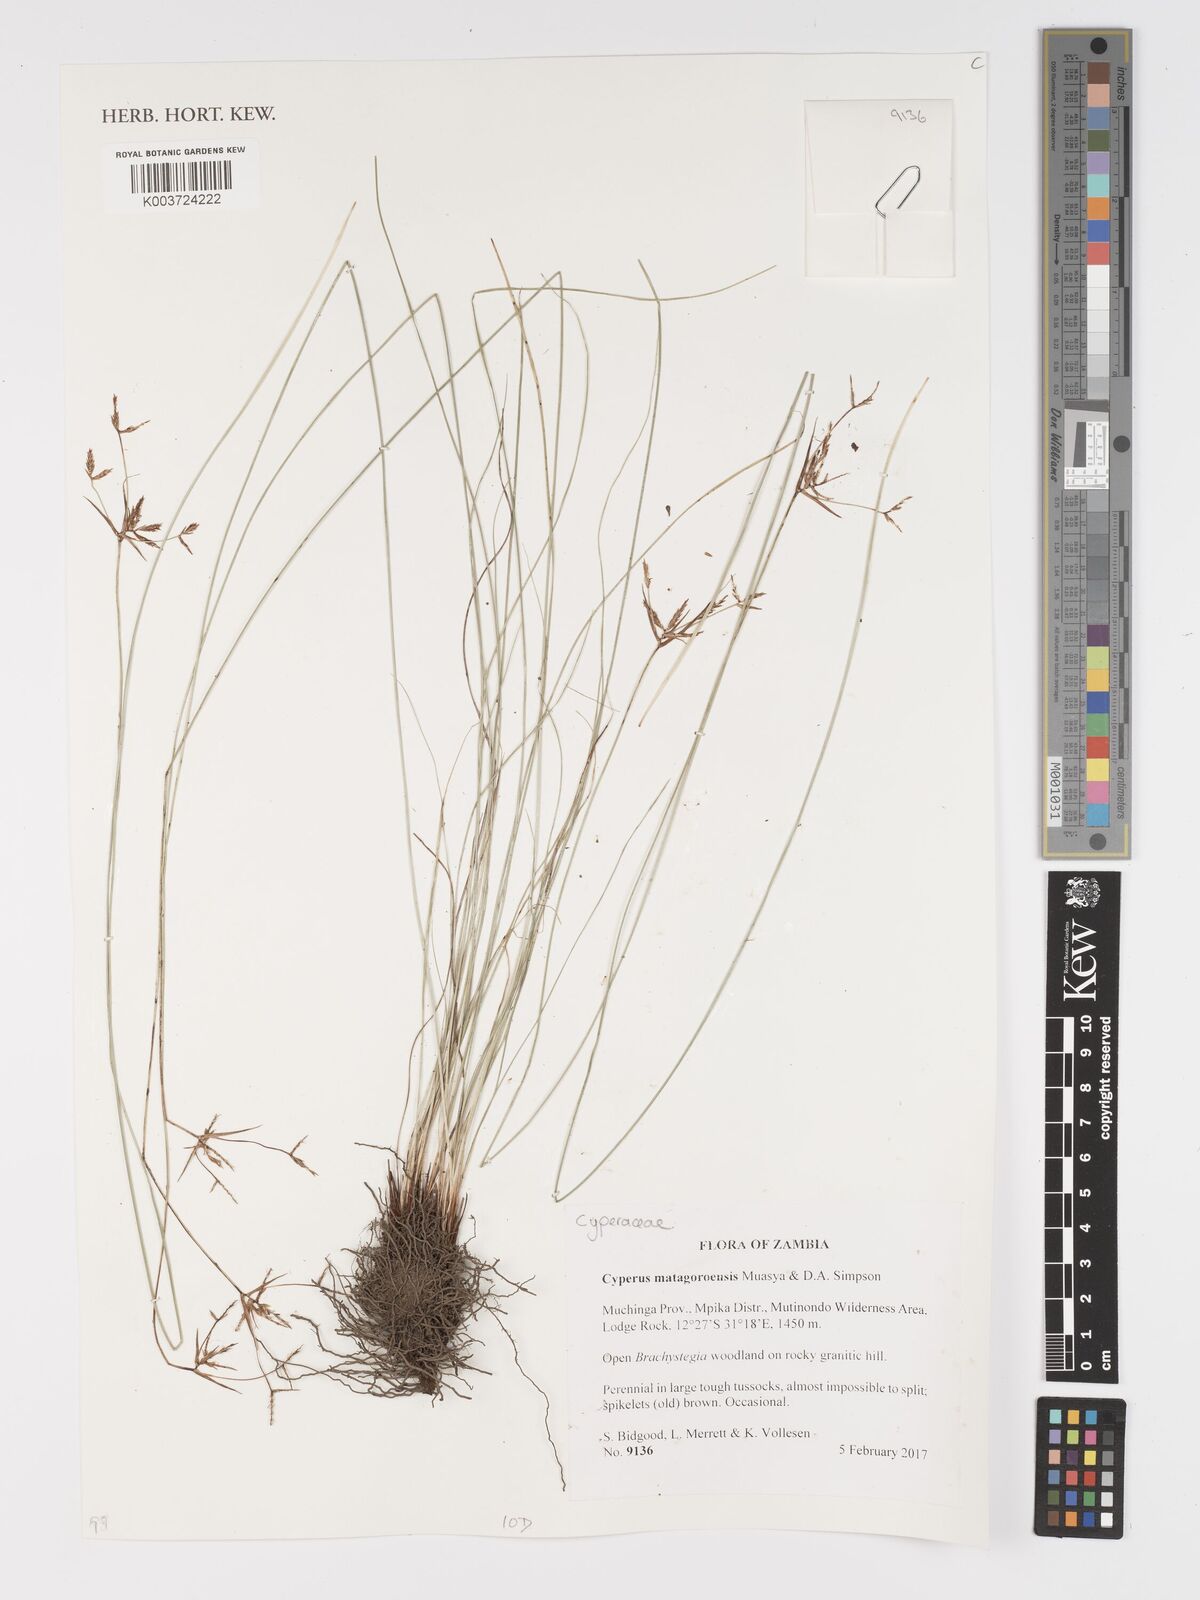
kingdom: Plantae
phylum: Tracheophyta
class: Liliopsida
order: Poales
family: Cyperaceae
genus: Cyperus
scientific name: Cyperus matagoroensis
